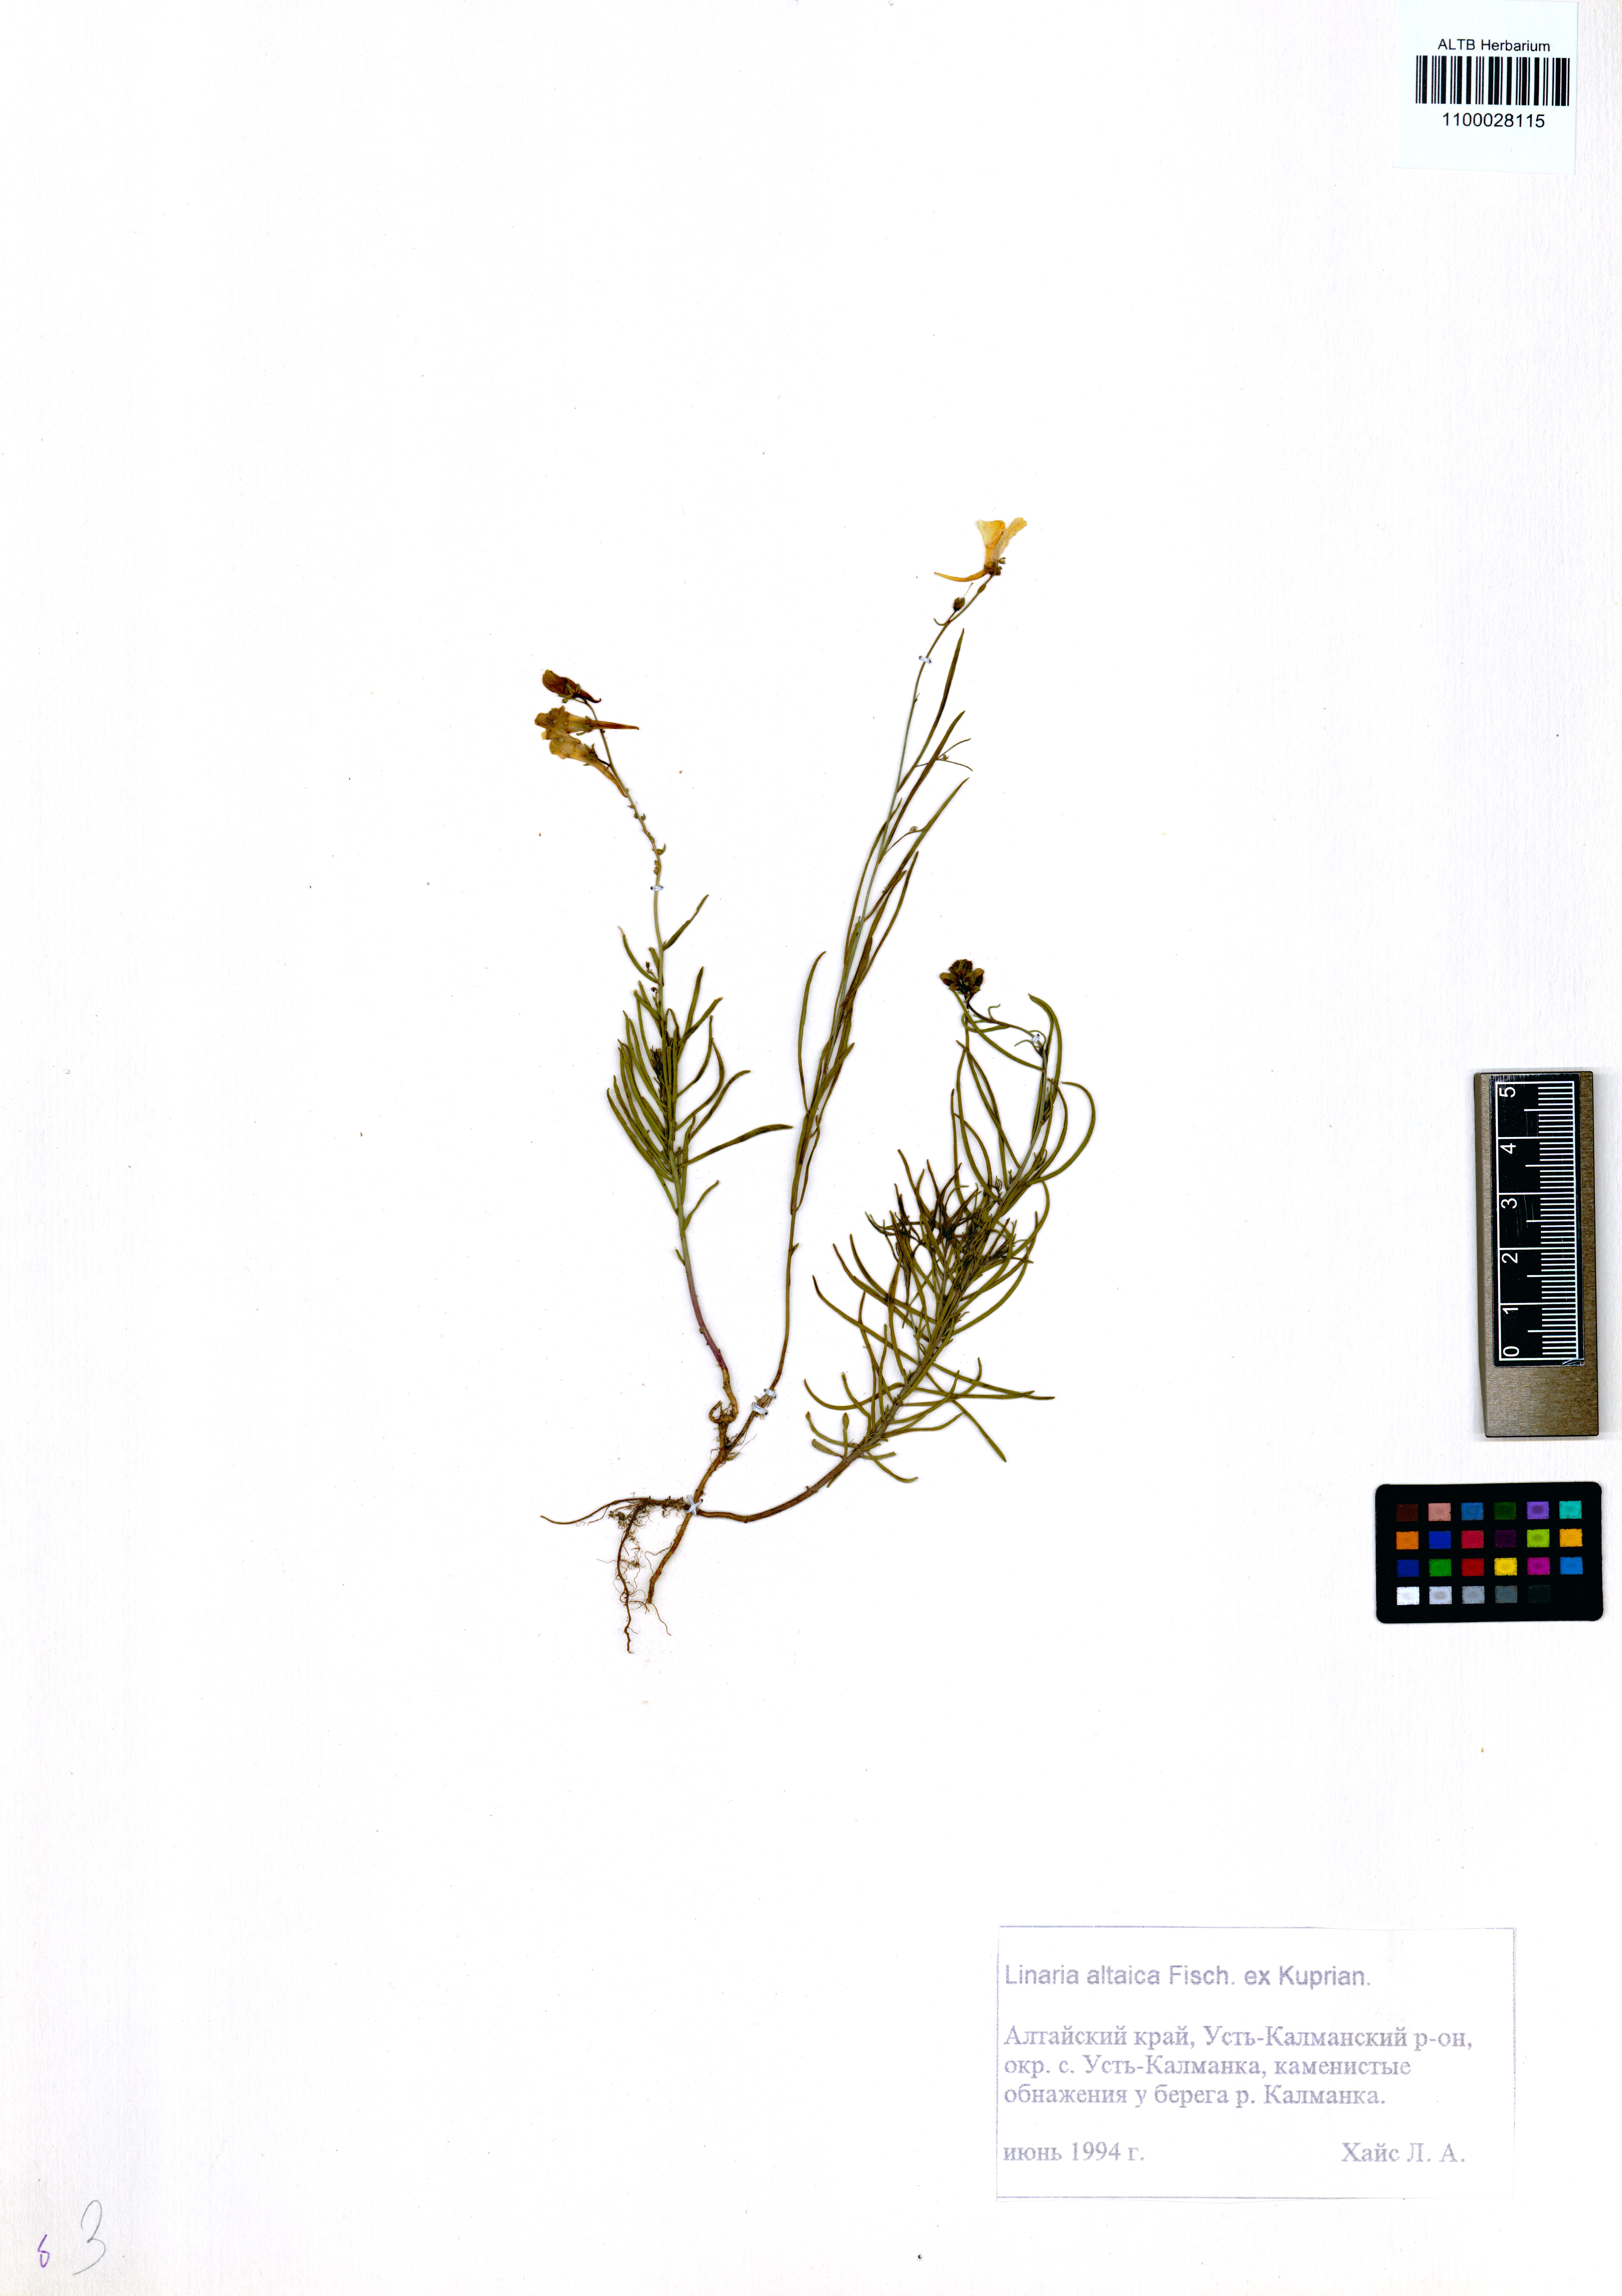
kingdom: Plantae
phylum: Tracheophyta
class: Magnoliopsida
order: Lamiales
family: Plantaginaceae
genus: Linaria
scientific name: Linaria altaica
